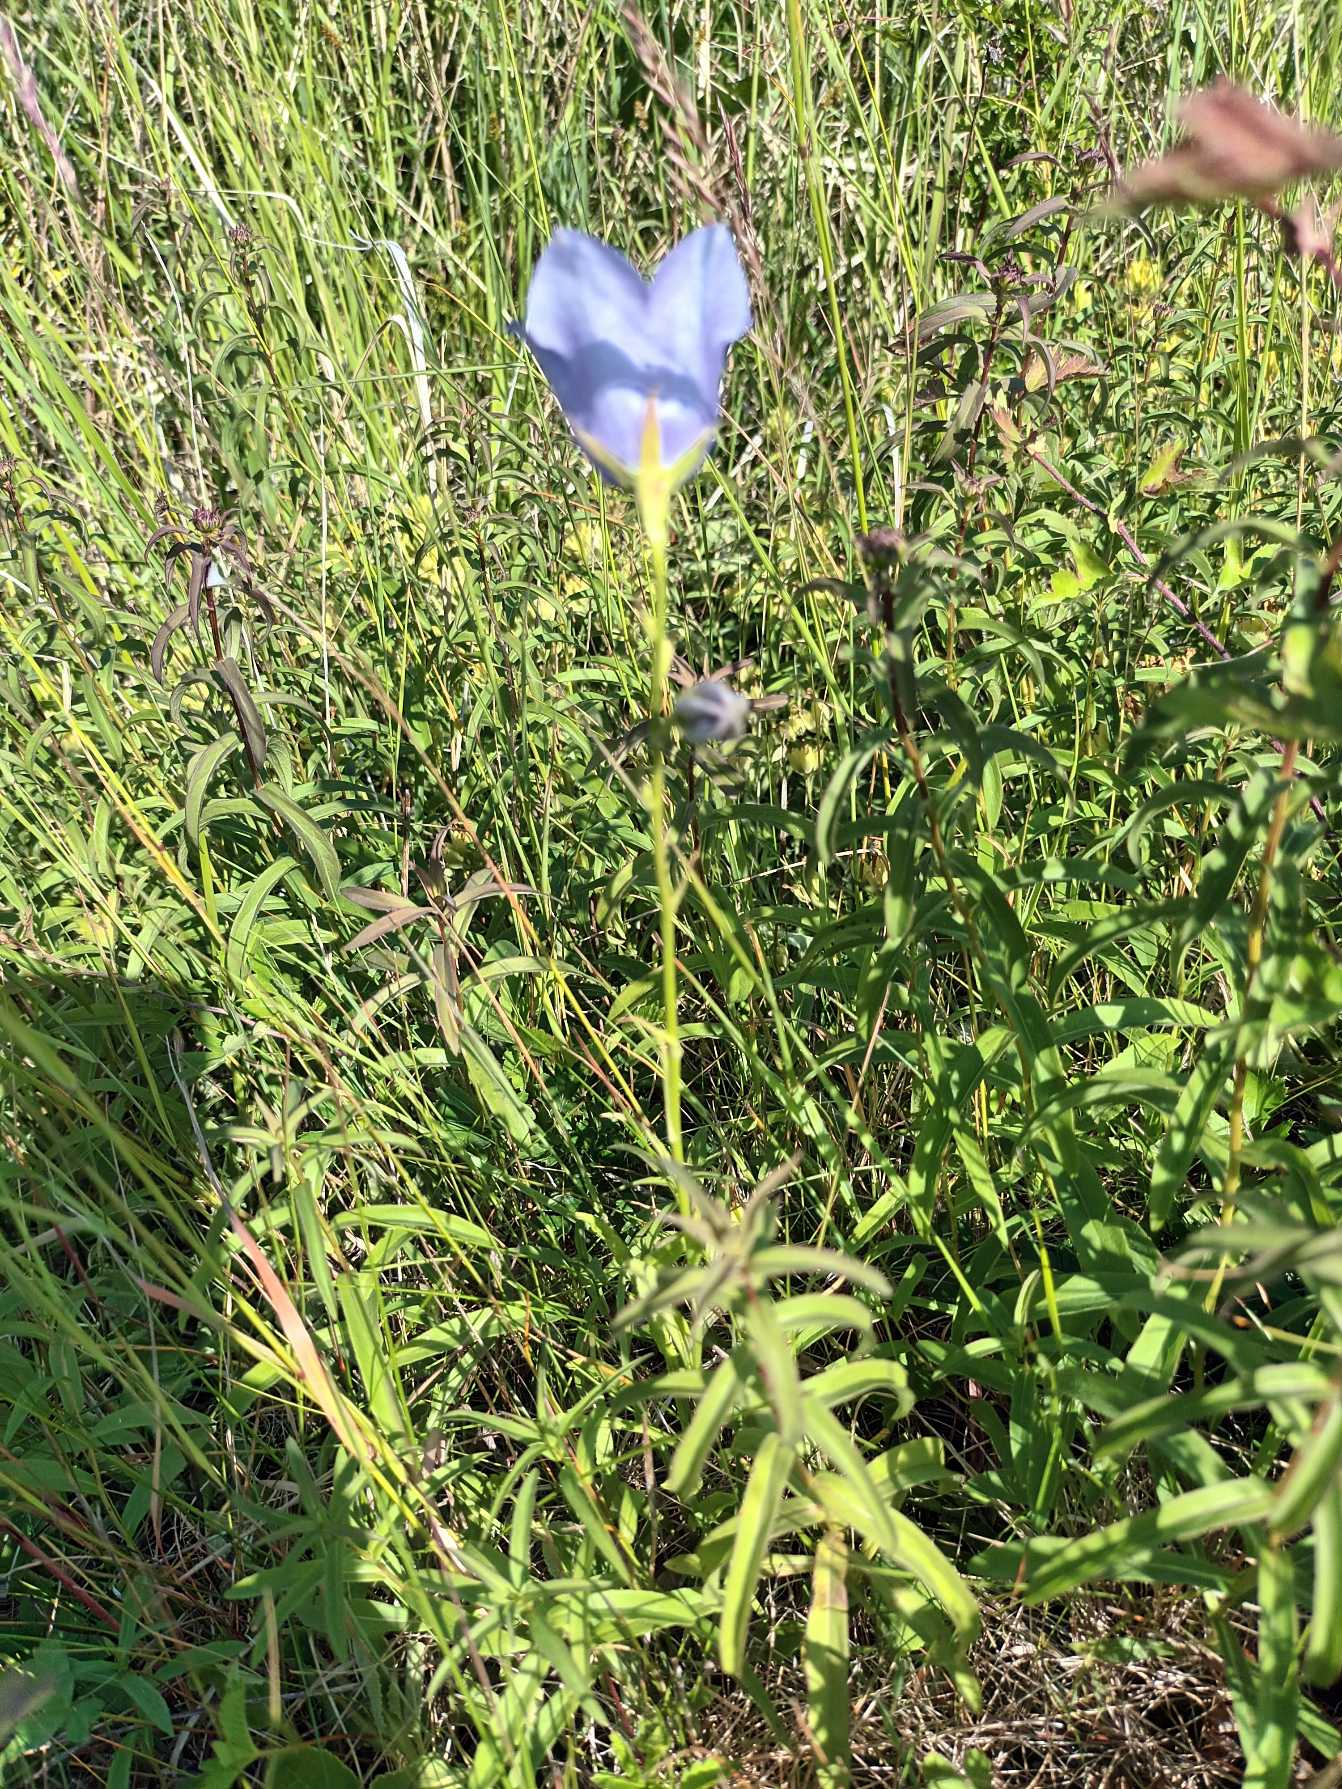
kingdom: Plantae
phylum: Tracheophyta
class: Magnoliopsida
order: Asterales
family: Campanulaceae
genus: Campanula
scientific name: Campanula persicifolia
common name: Smalbladet klokke
